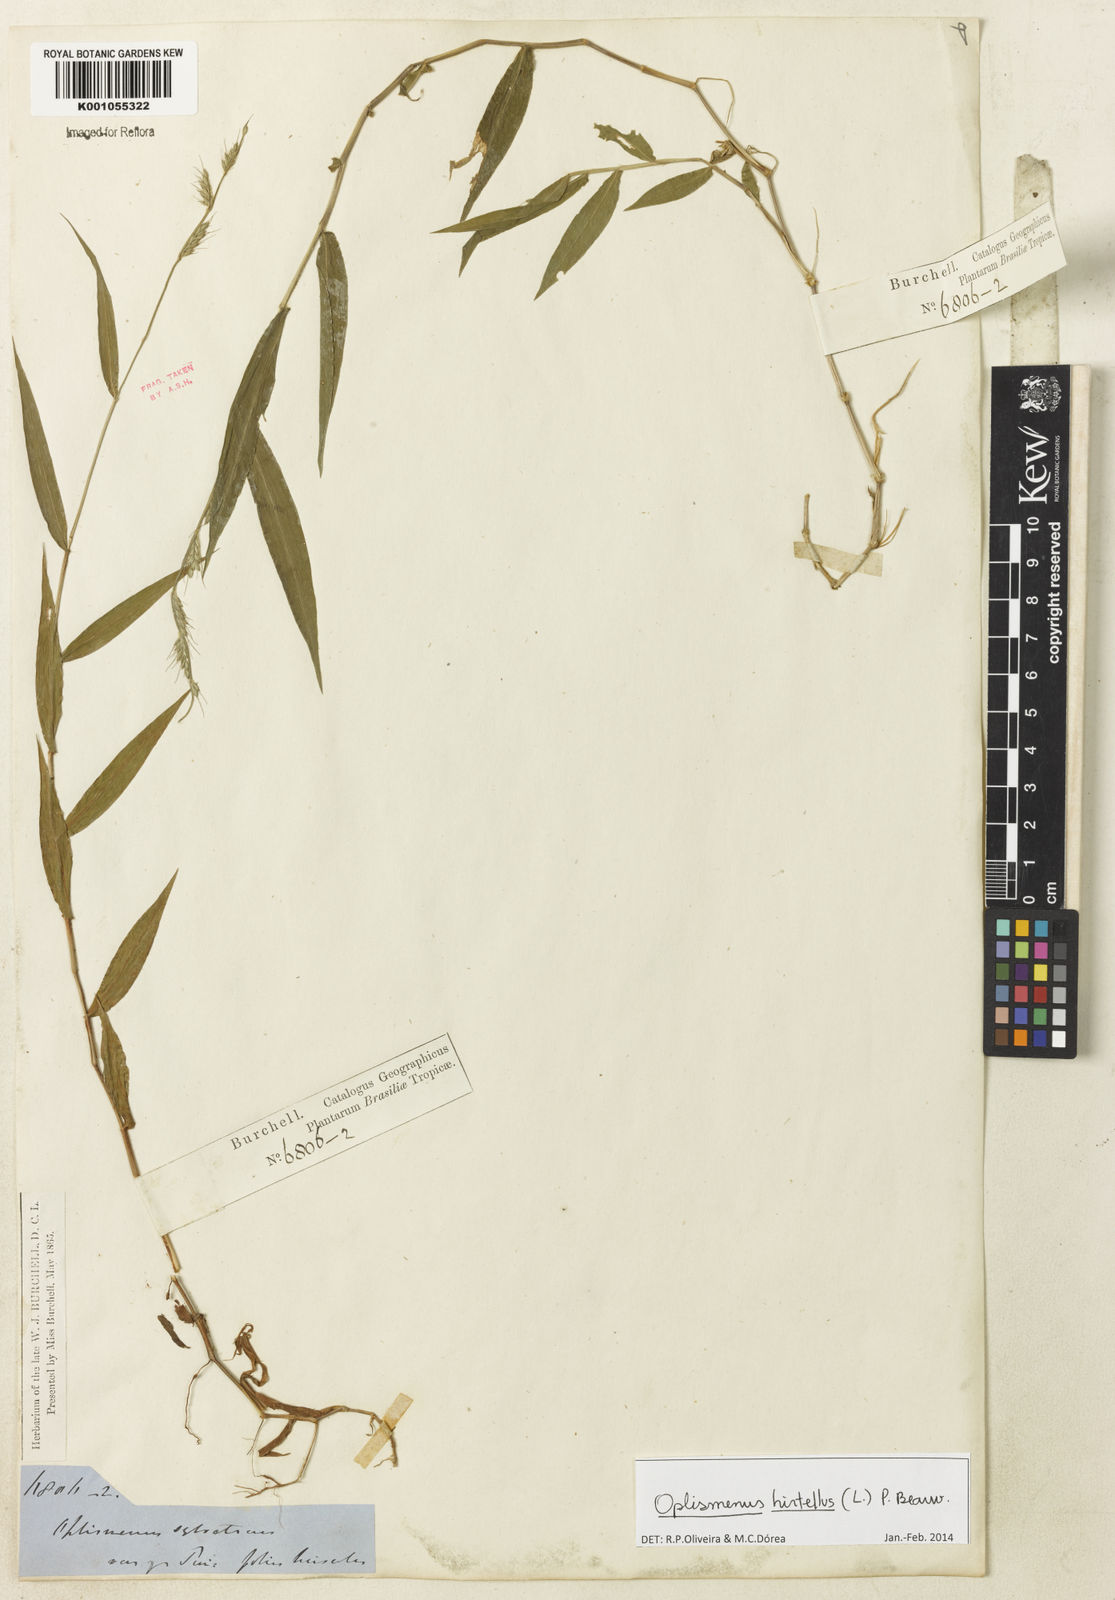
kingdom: Plantae
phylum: Tracheophyta
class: Liliopsida
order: Poales
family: Poaceae
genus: Oplismenus
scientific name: Oplismenus hirtellus
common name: Basketgrass
